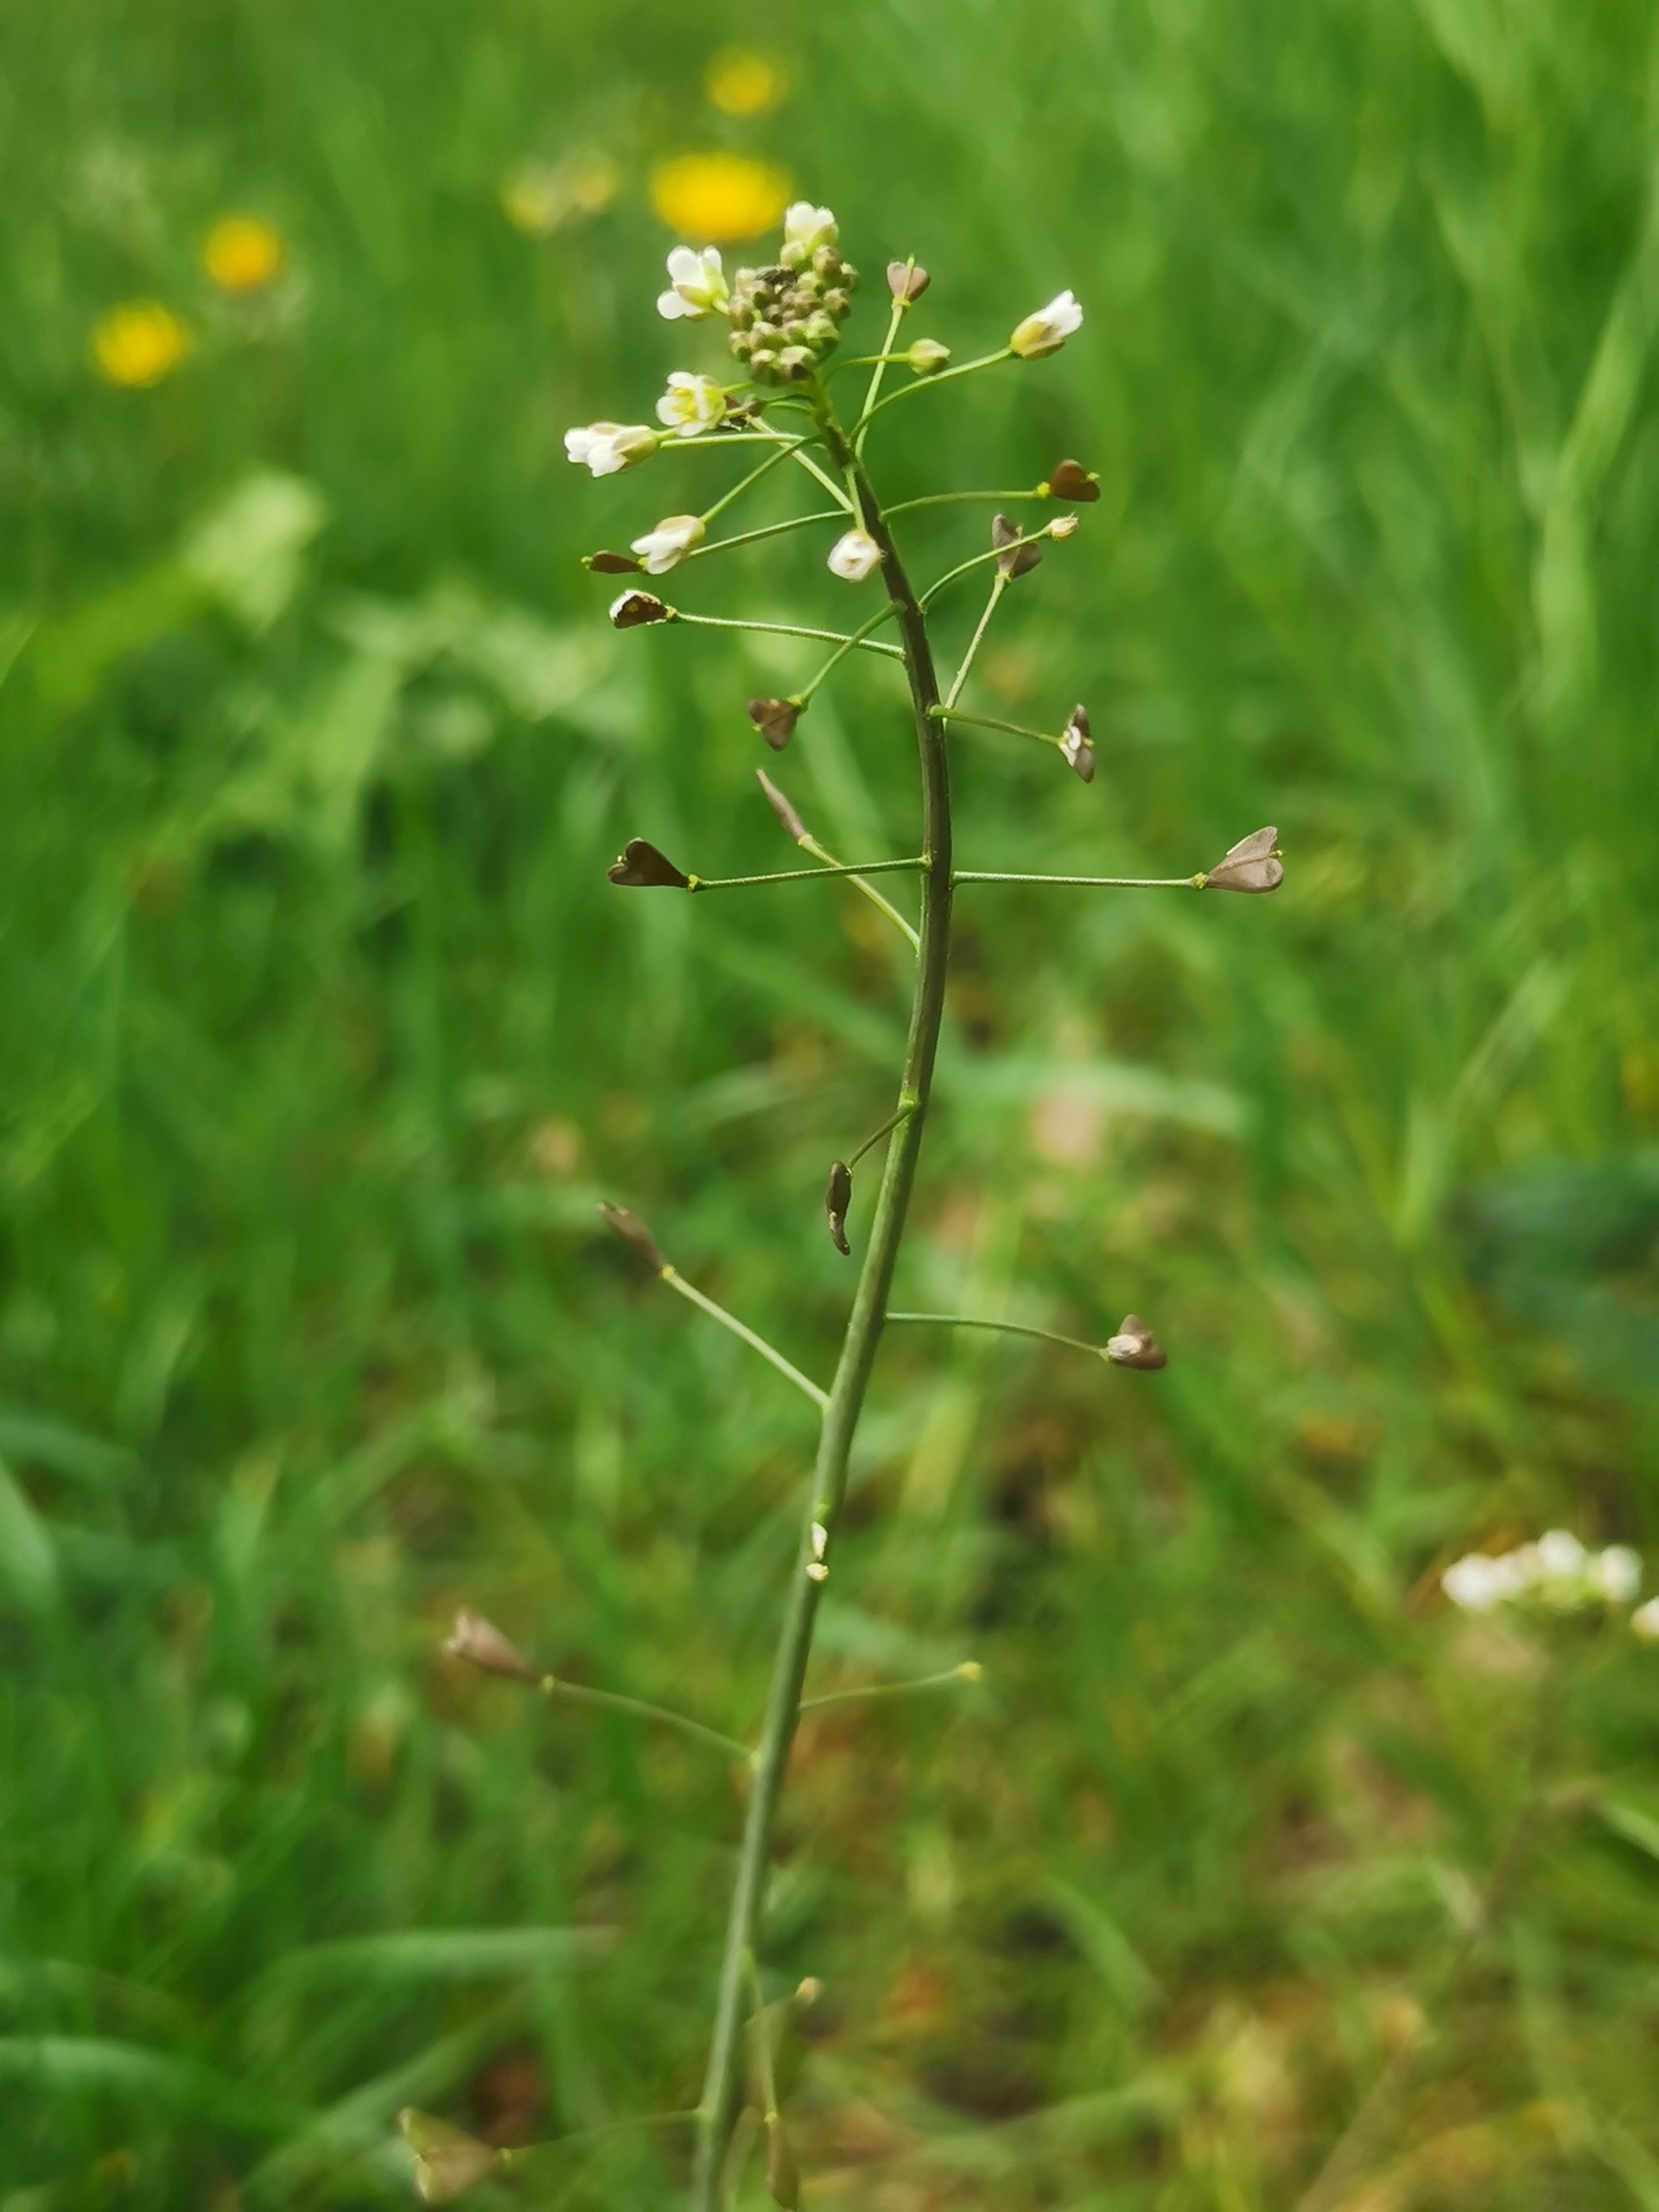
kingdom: Plantae
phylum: Tracheophyta
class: Magnoliopsida
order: Brassicales
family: Brassicaceae
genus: Capsella
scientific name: Capsella bursa-pastoris
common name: Hyrdetaske
